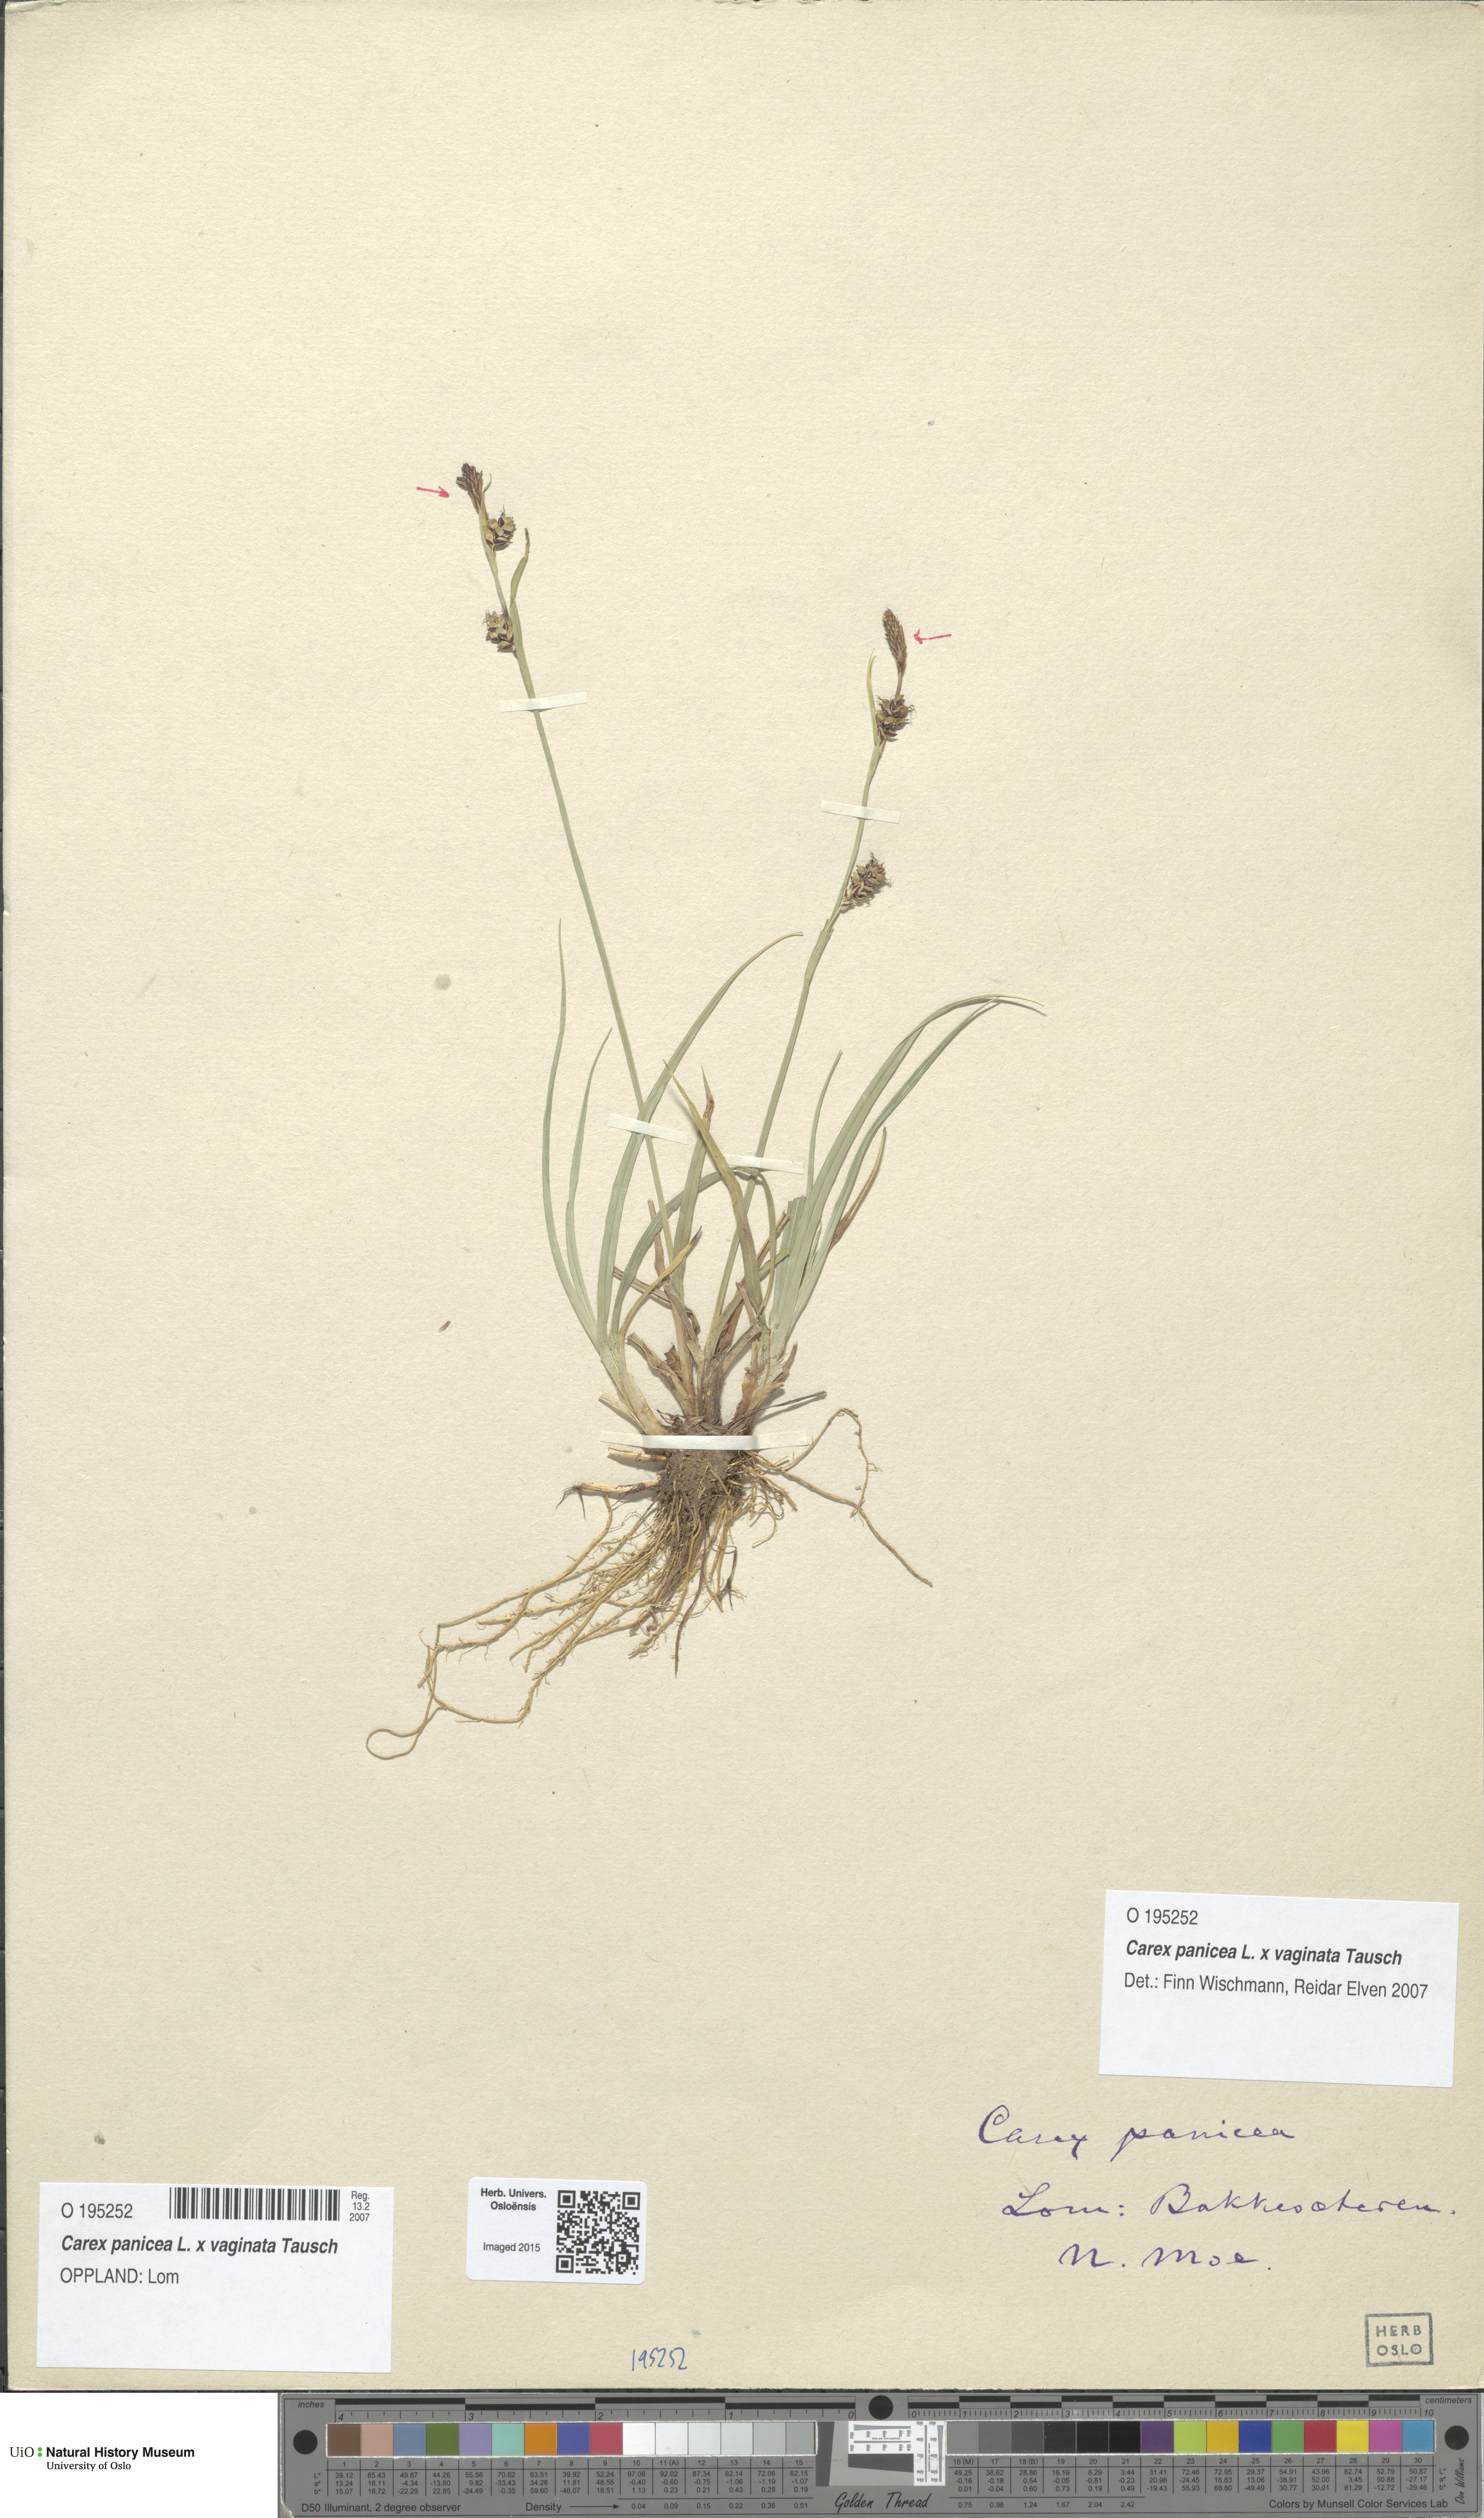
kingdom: Plantae
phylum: Tracheophyta
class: Liliopsida
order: Poales
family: Cyperaceae
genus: Carex
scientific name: Carex
